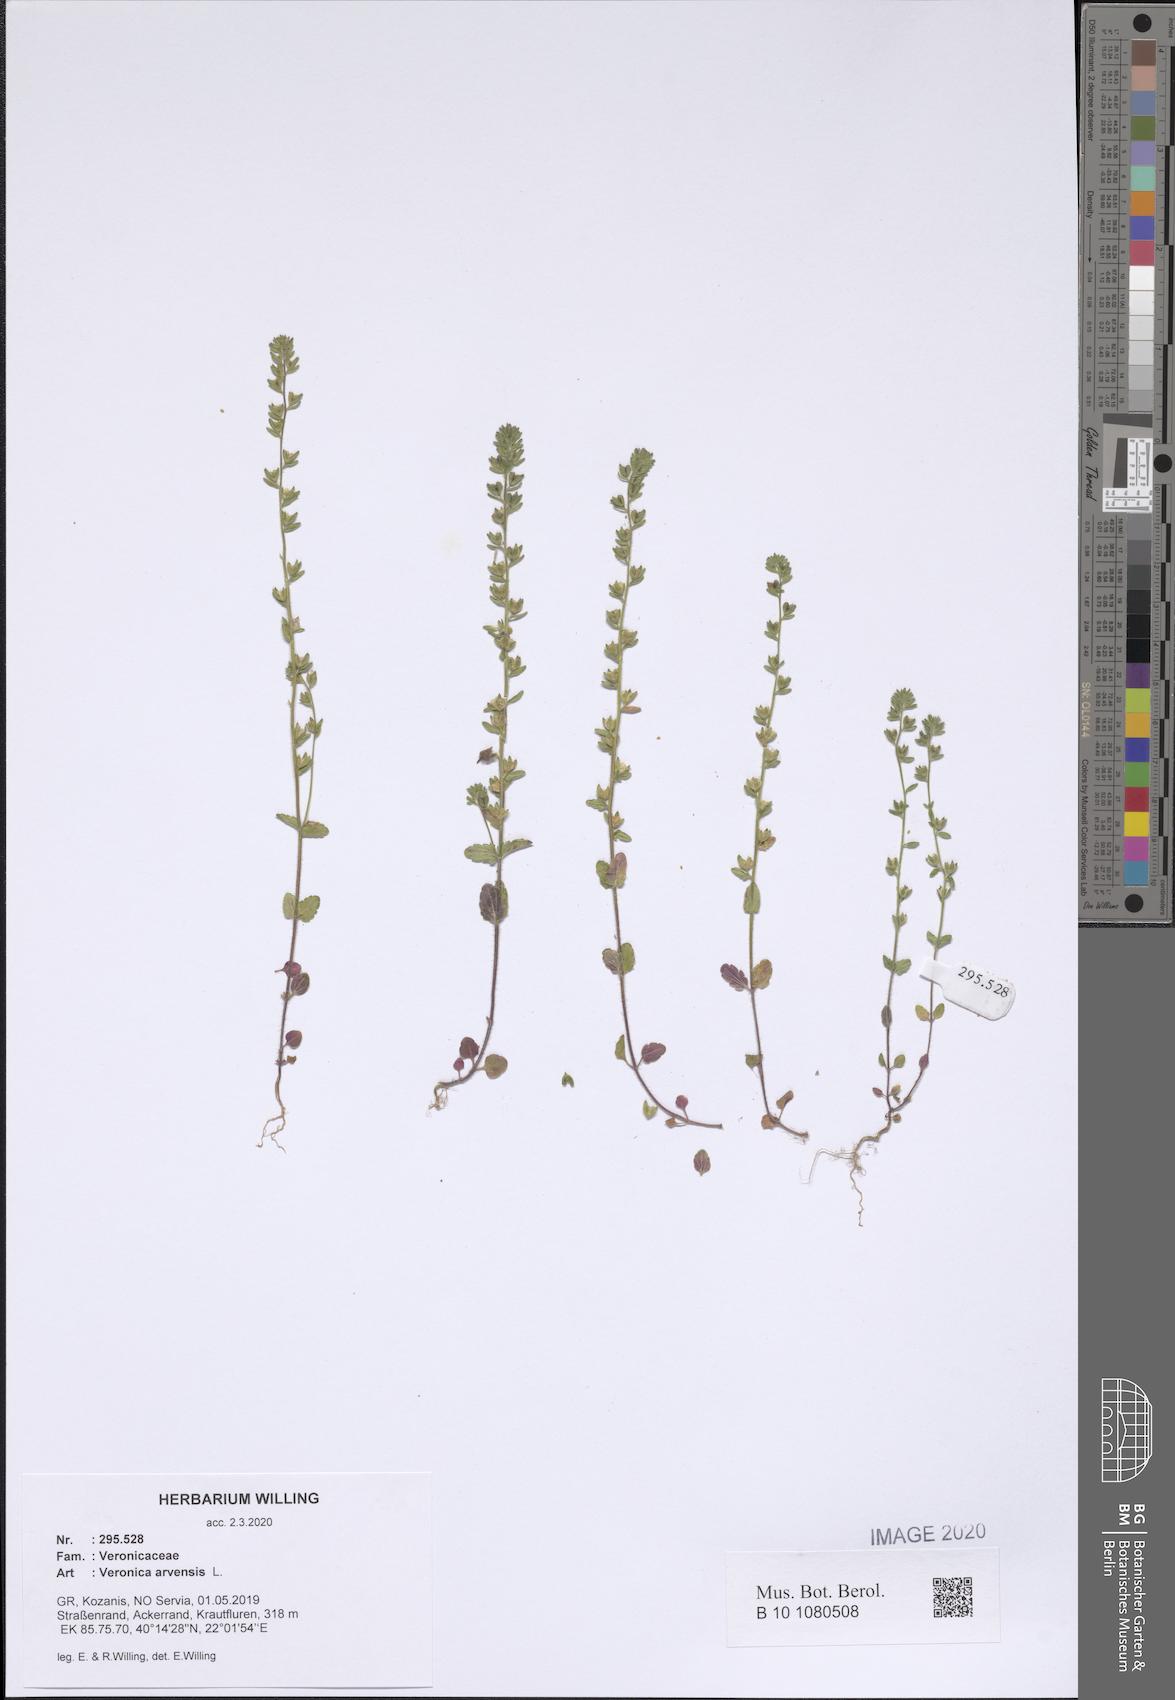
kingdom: Plantae
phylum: Tracheophyta
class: Magnoliopsida
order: Lamiales
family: Plantaginaceae
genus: Veronica
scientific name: Veronica arvensis
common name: Corn speedwell
